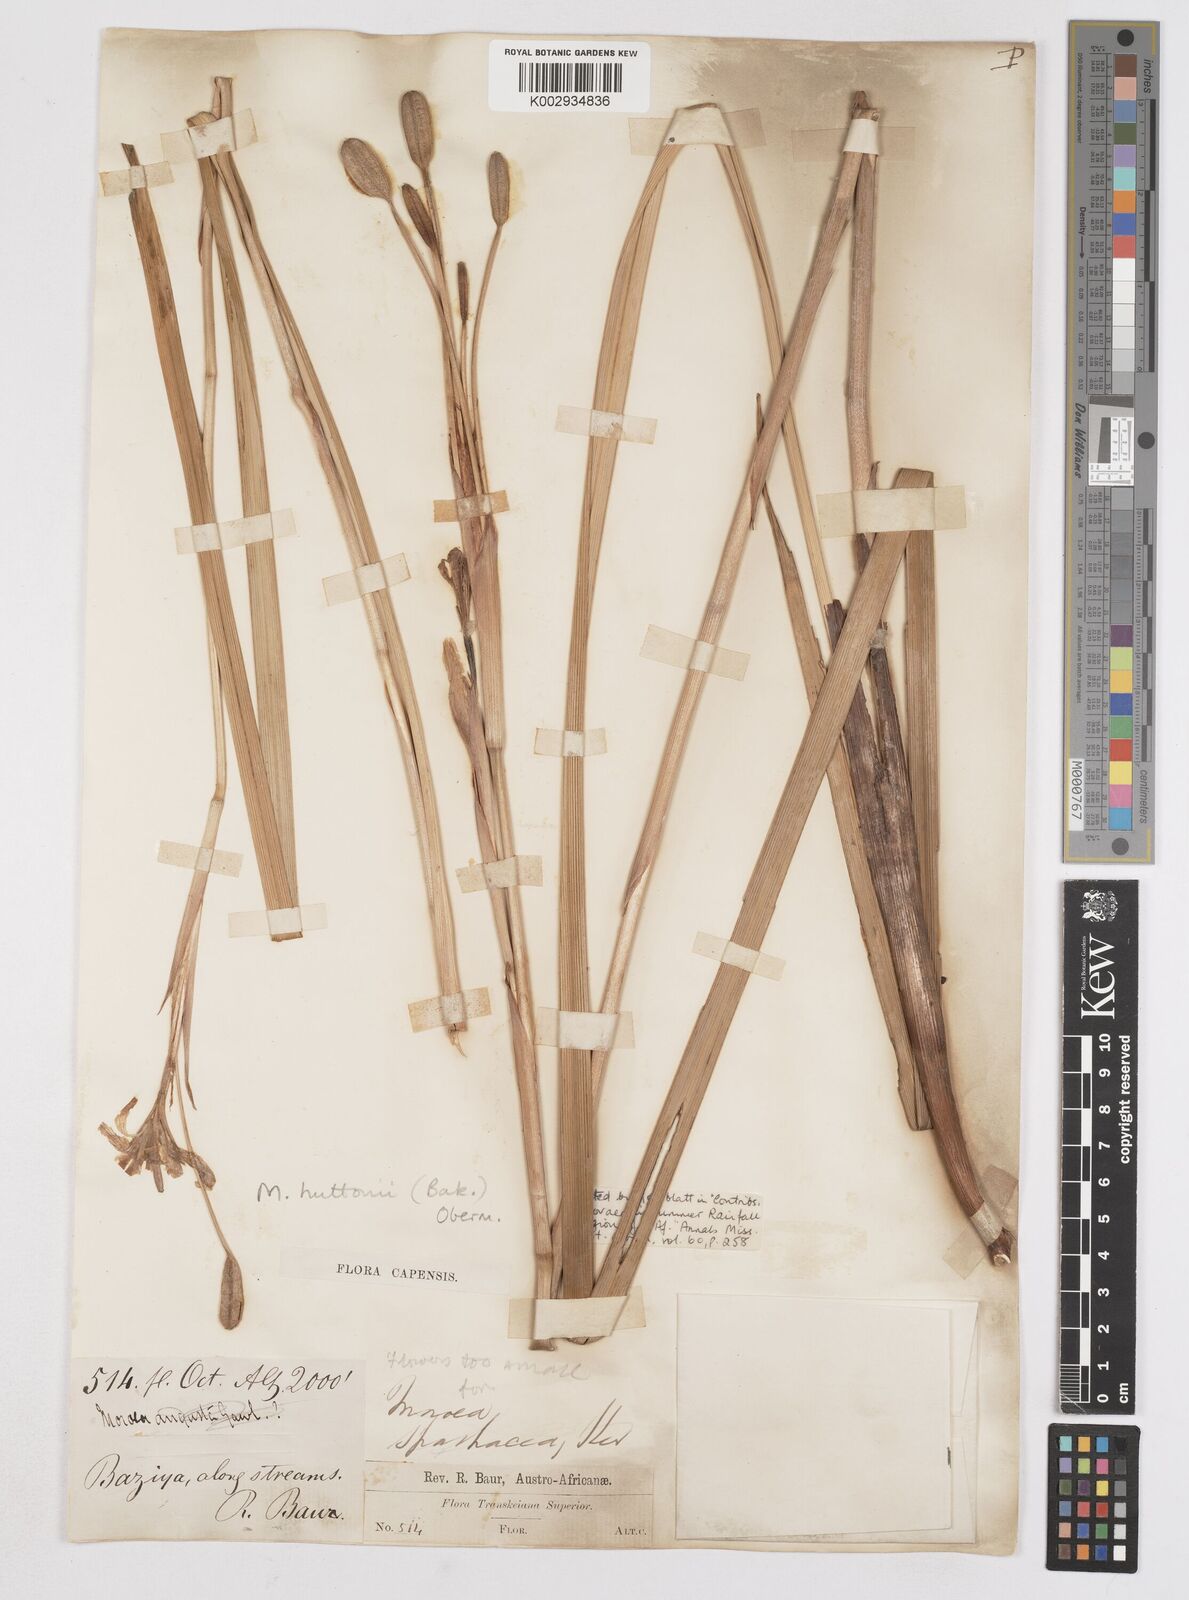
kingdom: Plantae
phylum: Tracheophyta
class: Liliopsida
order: Asparagales
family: Iridaceae
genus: Moraea
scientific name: Moraea huttonii
